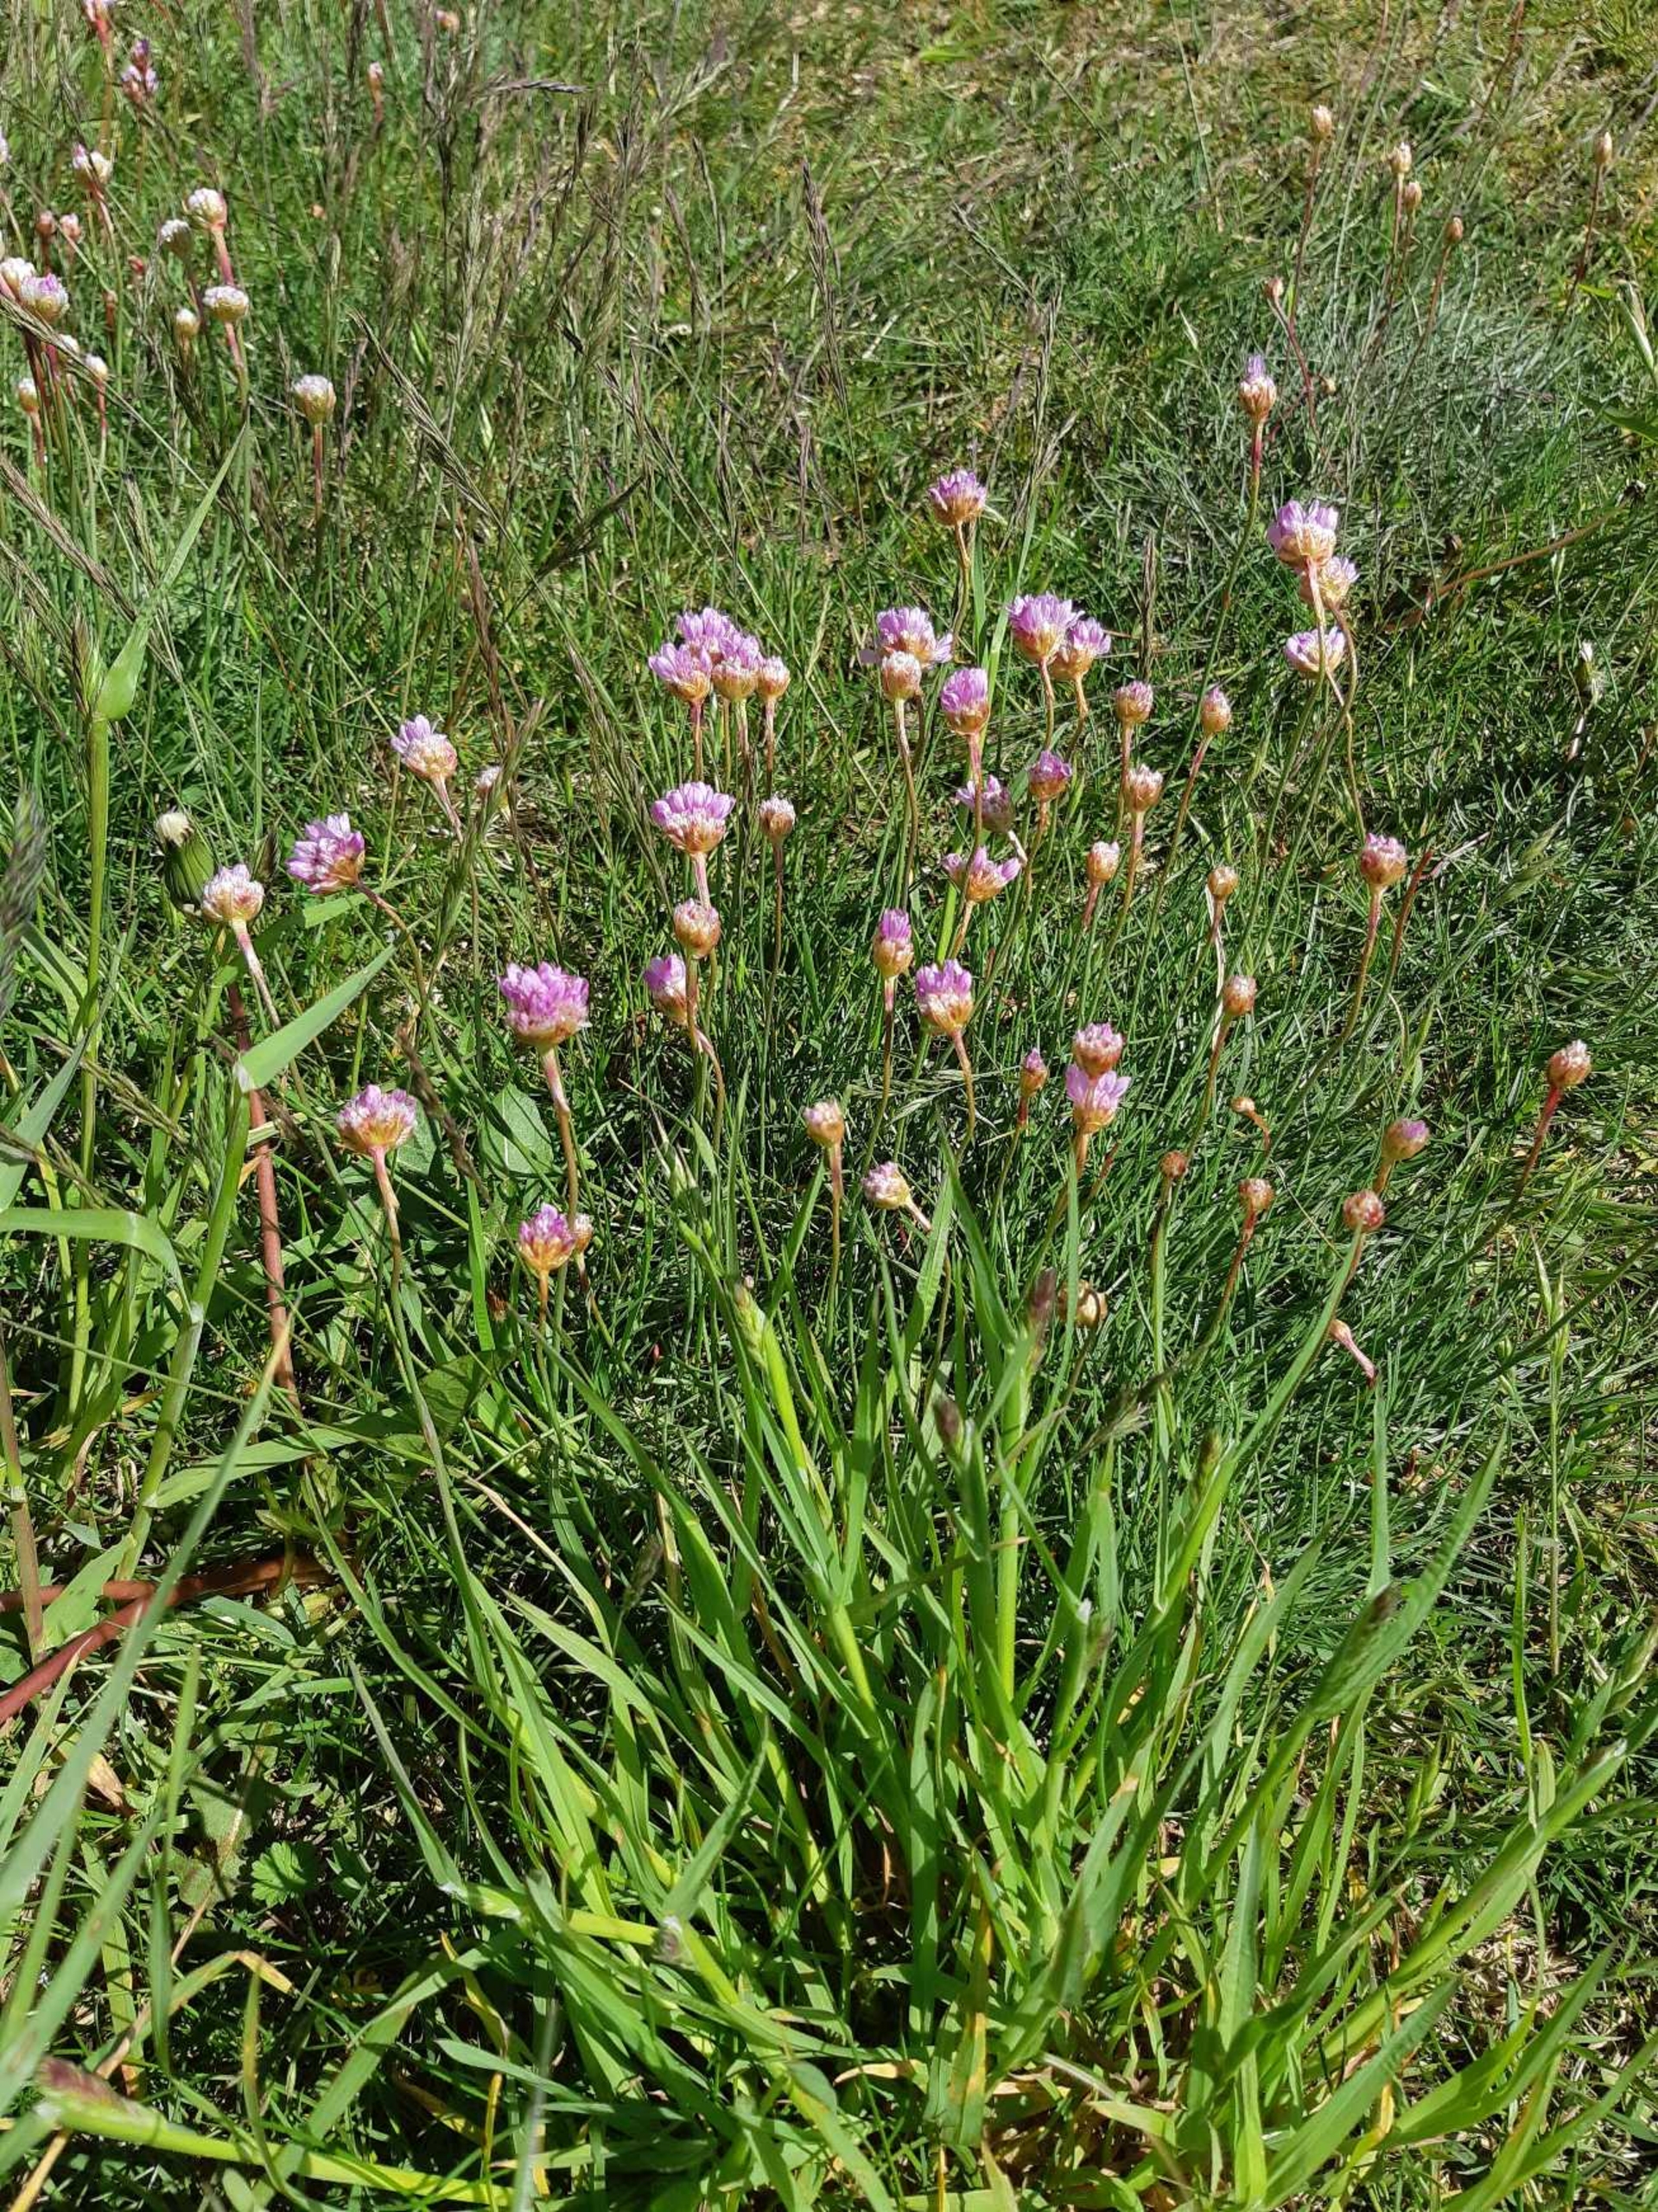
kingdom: Plantae
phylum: Tracheophyta
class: Magnoliopsida
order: Caryophyllales
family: Plumbaginaceae
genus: Armeria
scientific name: Armeria maritima
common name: Engelskgræs
